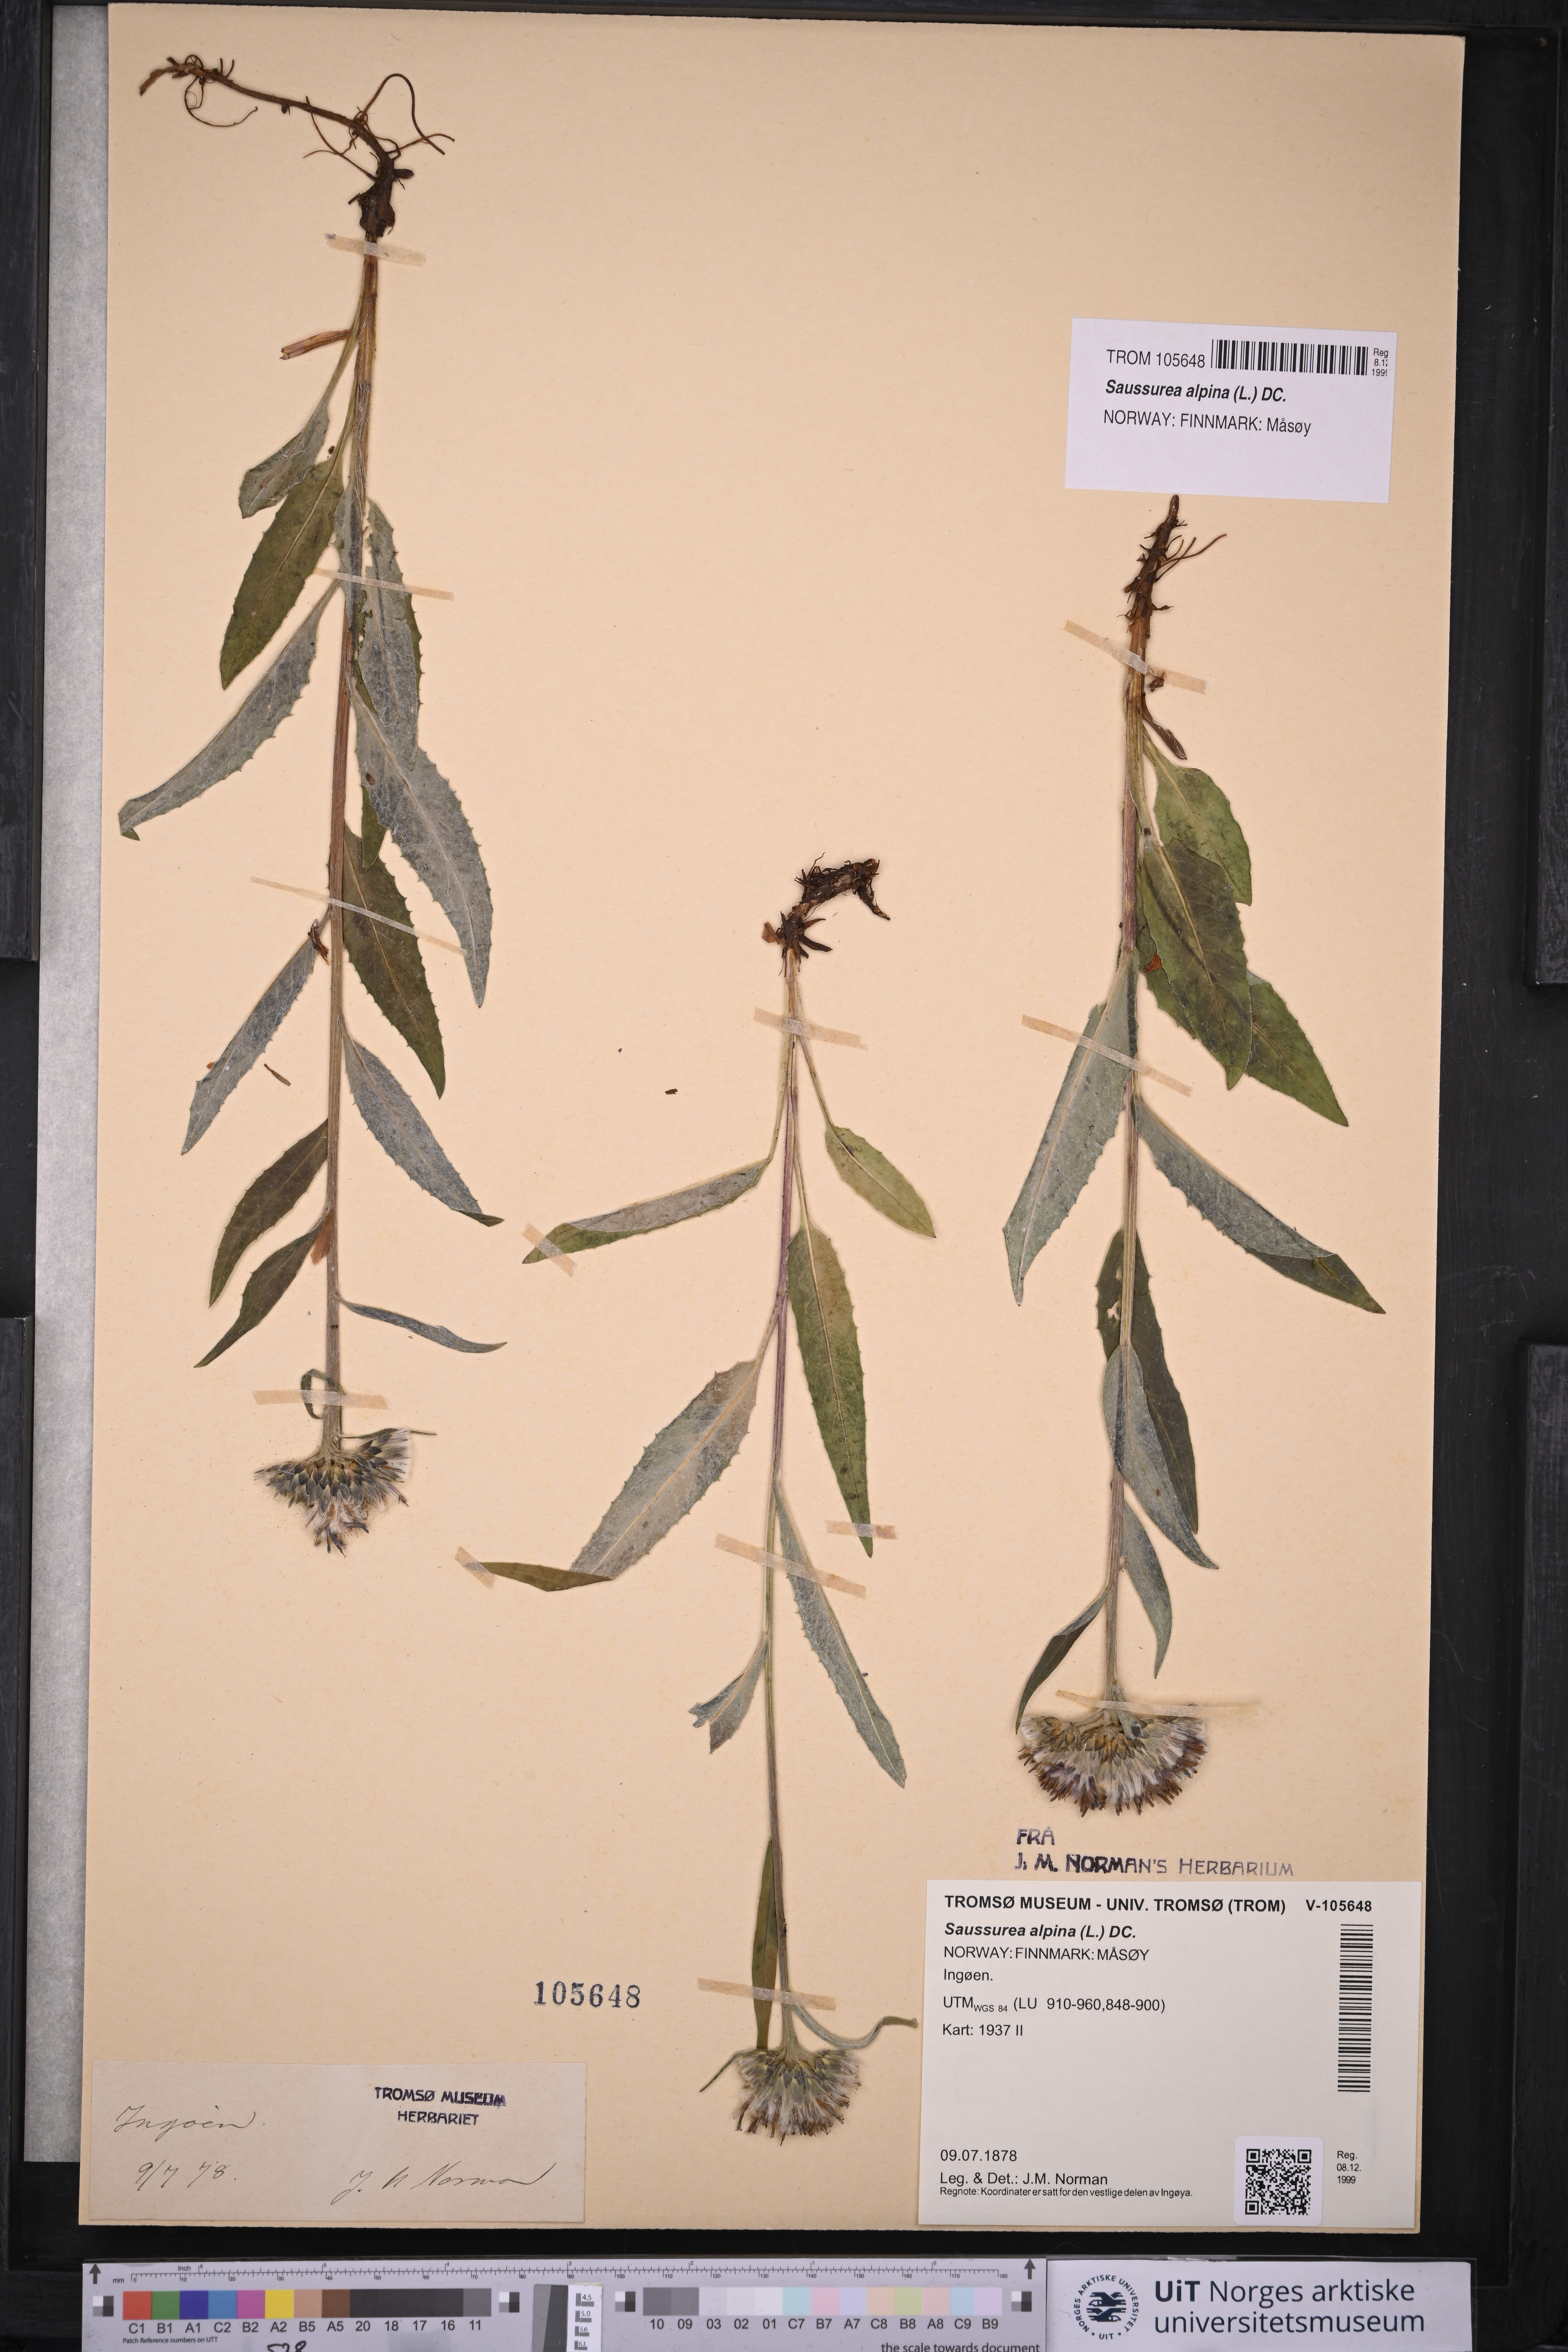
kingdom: Plantae
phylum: Tracheophyta
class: Magnoliopsida
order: Asterales
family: Asteraceae
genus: Saussurea
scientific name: Saussurea alpina
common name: Alpine saw-wort
